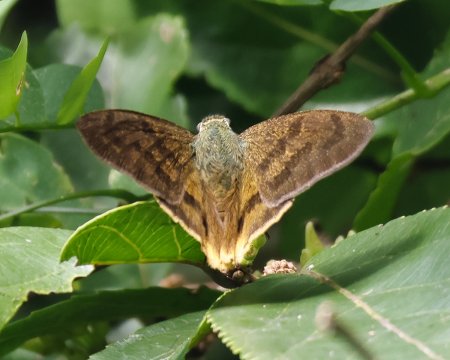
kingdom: Animalia
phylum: Arthropoda
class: Insecta
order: Lepidoptera
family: Hesperiidae
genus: Astraptes
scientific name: Astraptes anaphus
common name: Yellow-tipped Flasher
